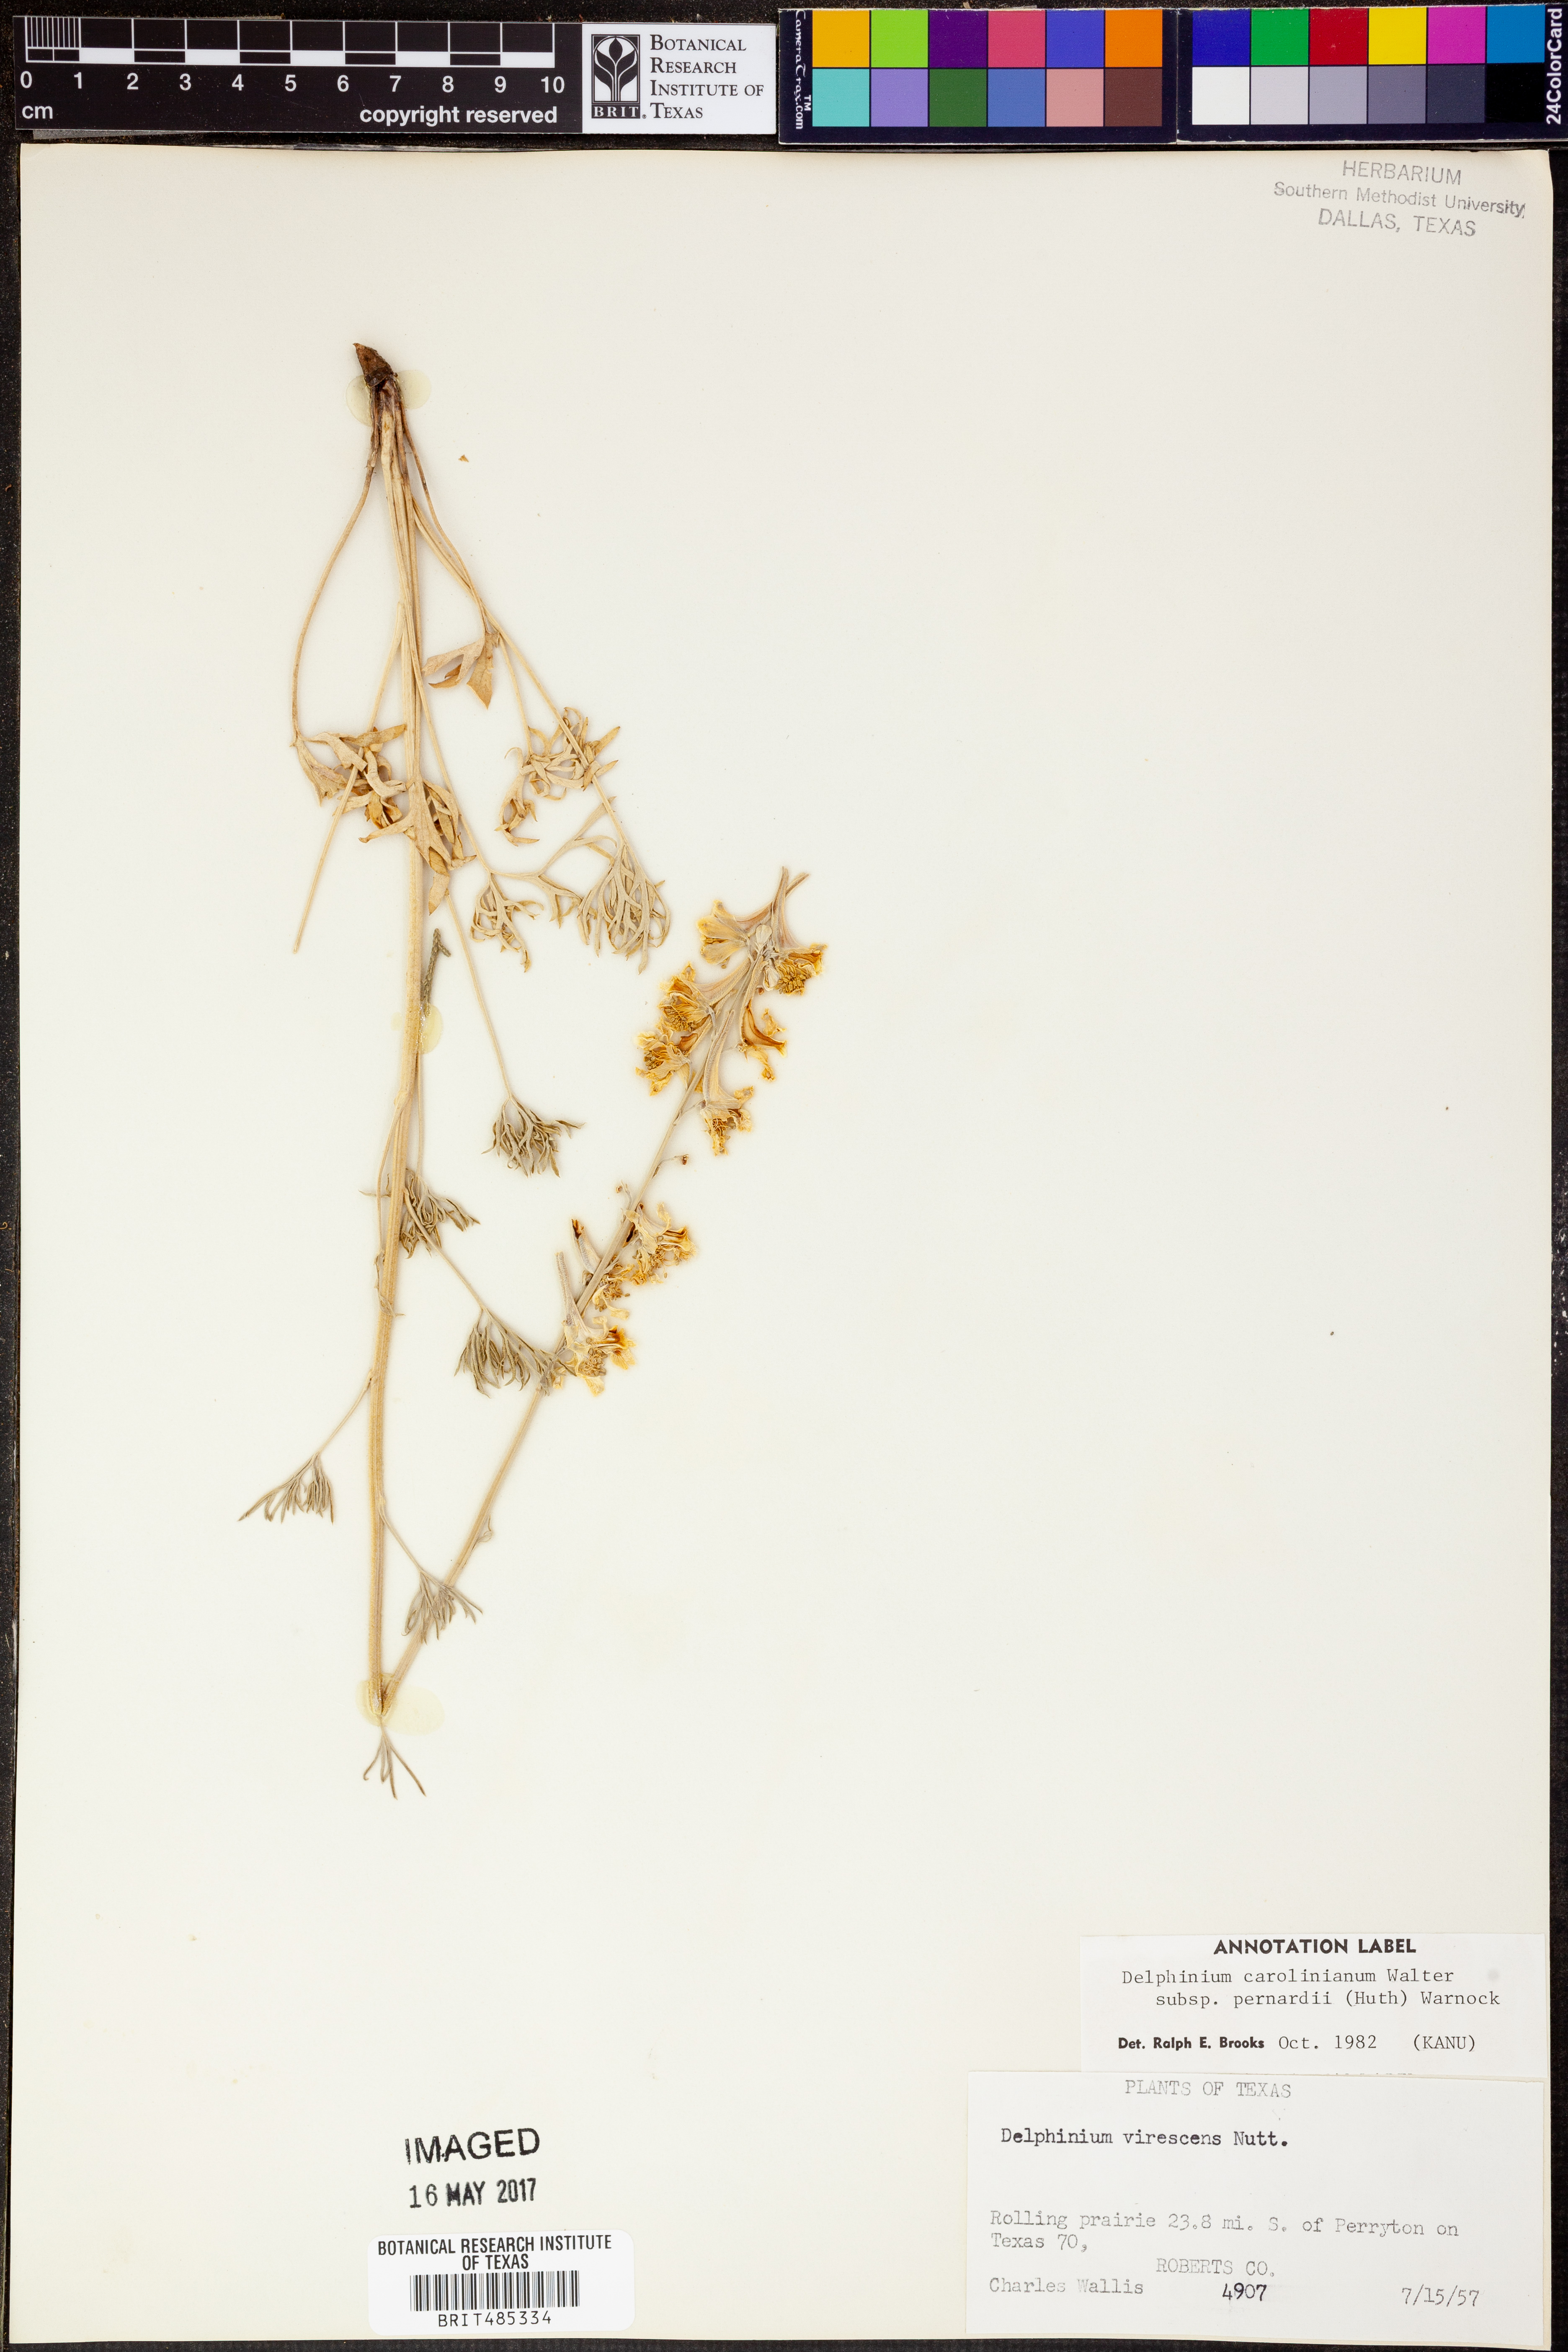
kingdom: Plantae
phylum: Tracheophyta
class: Magnoliopsida
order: Ranunculales
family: Ranunculaceae
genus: Delphinium
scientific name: Delphinium carolinianum
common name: Carolina larkspur
